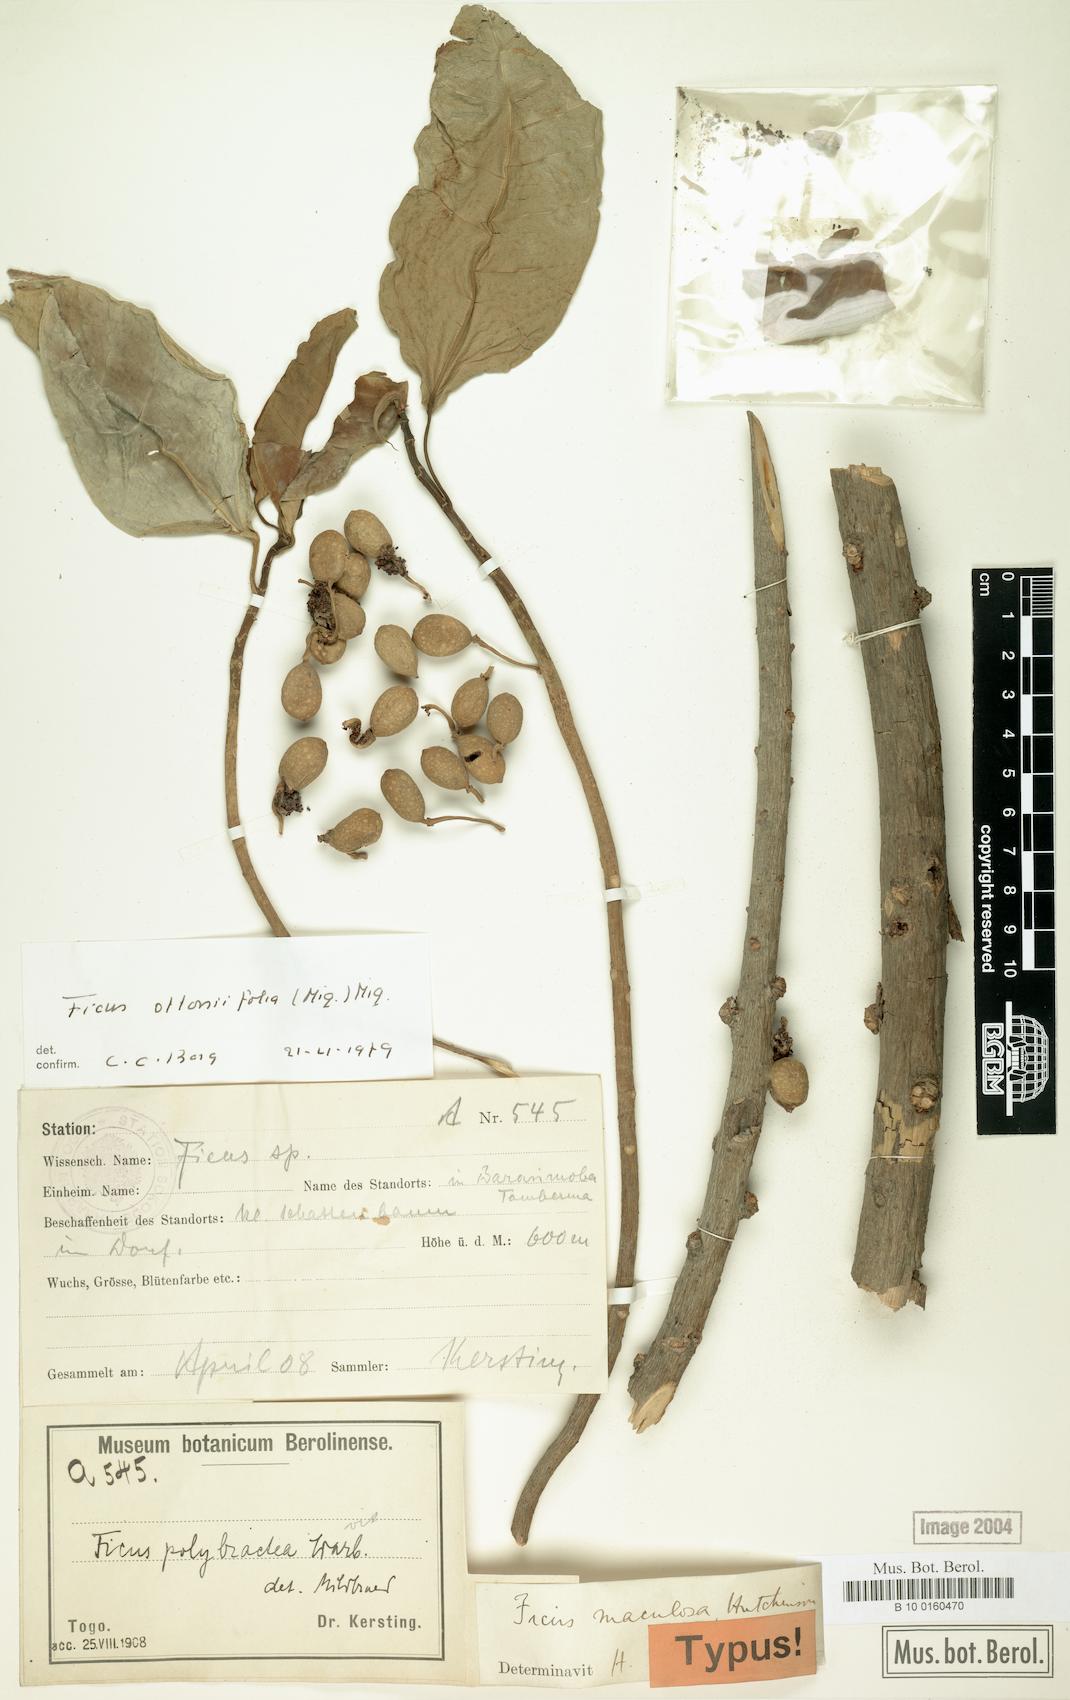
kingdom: Plantae
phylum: Tracheophyta
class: Magnoliopsida
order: Rosales
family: Moraceae
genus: Ficus
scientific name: Ficus ottoniifolia
